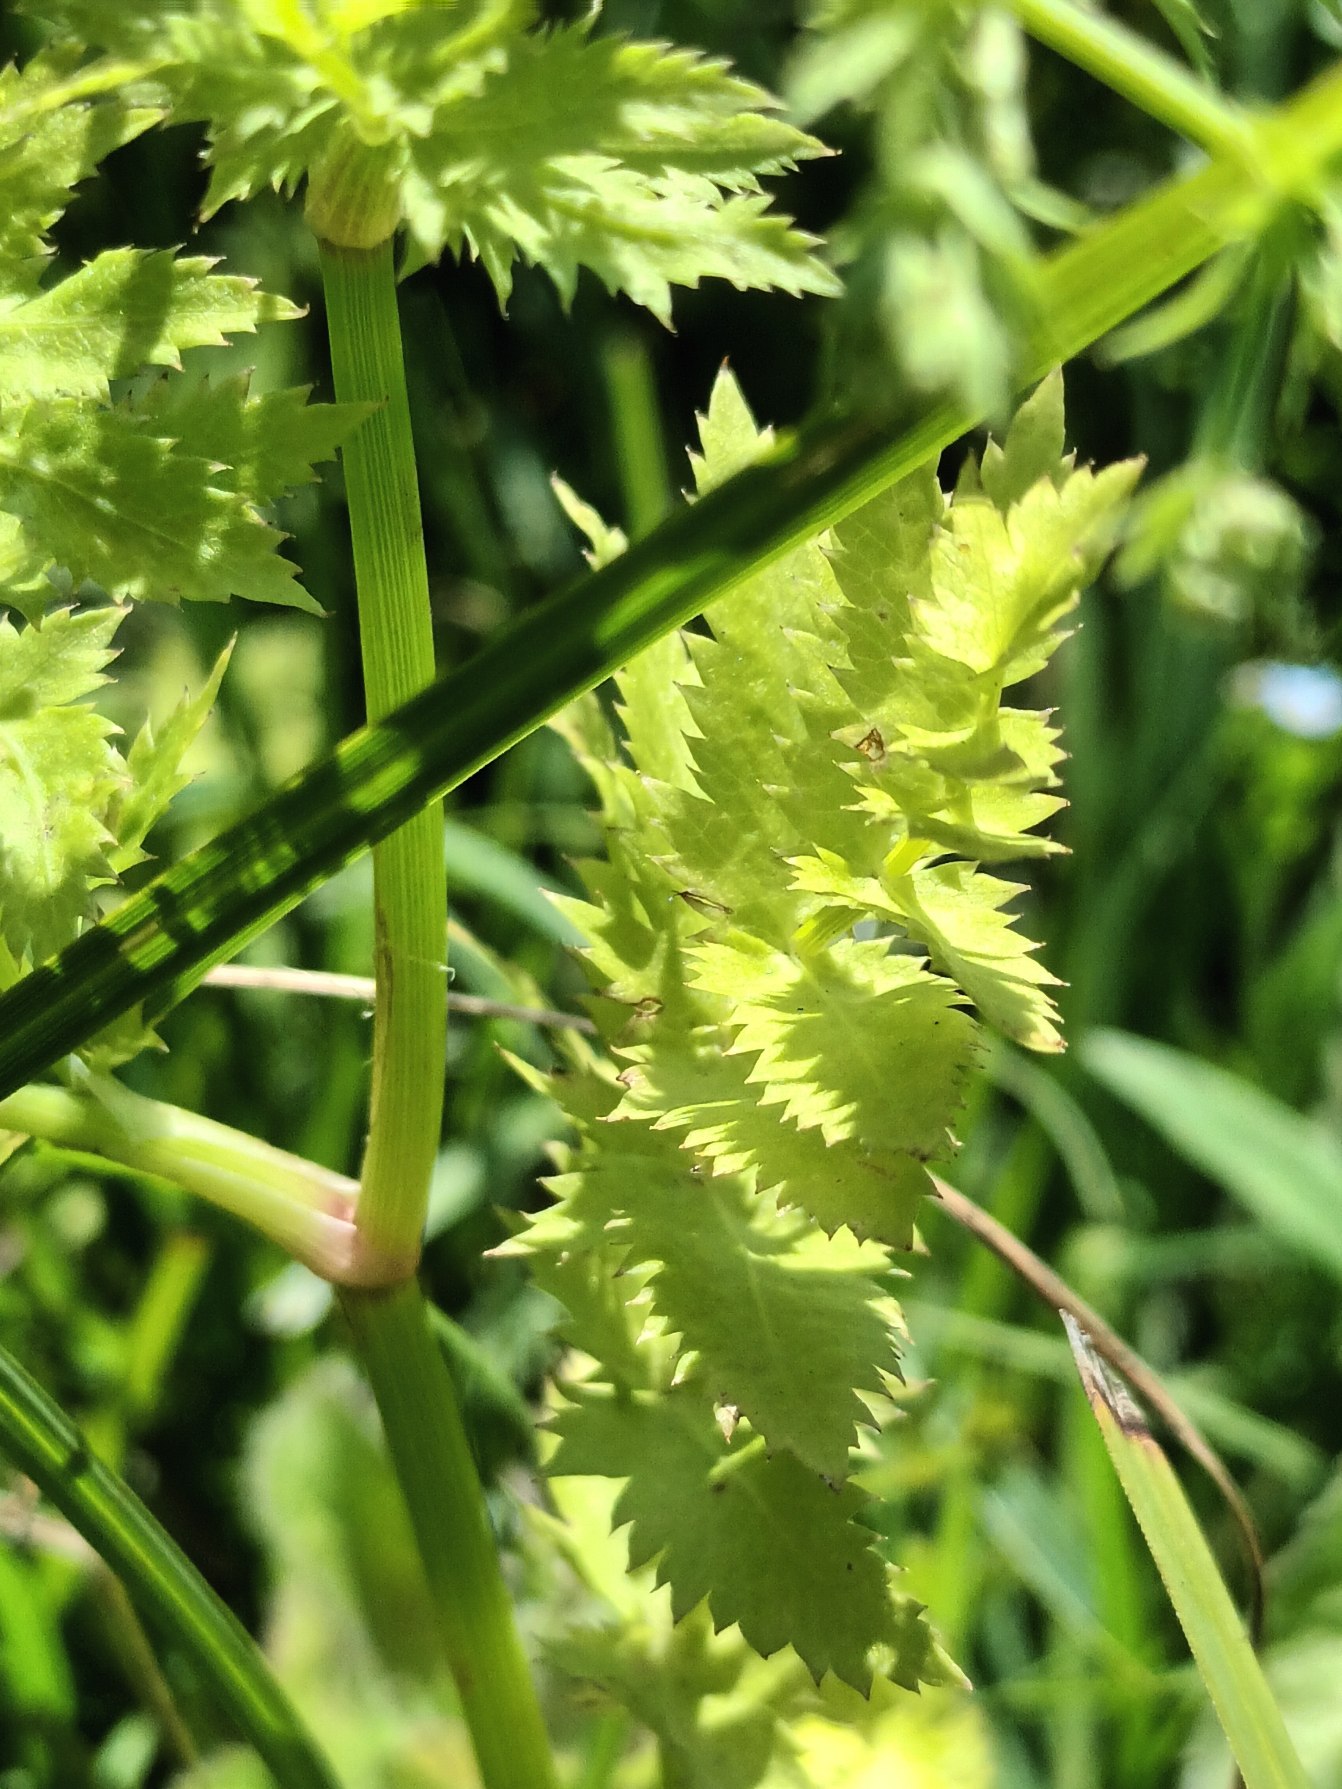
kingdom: Plantae
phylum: Tracheophyta
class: Magnoliopsida
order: Apiales
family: Apiaceae
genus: Berula
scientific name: Berula erecta
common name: Sideskærm
